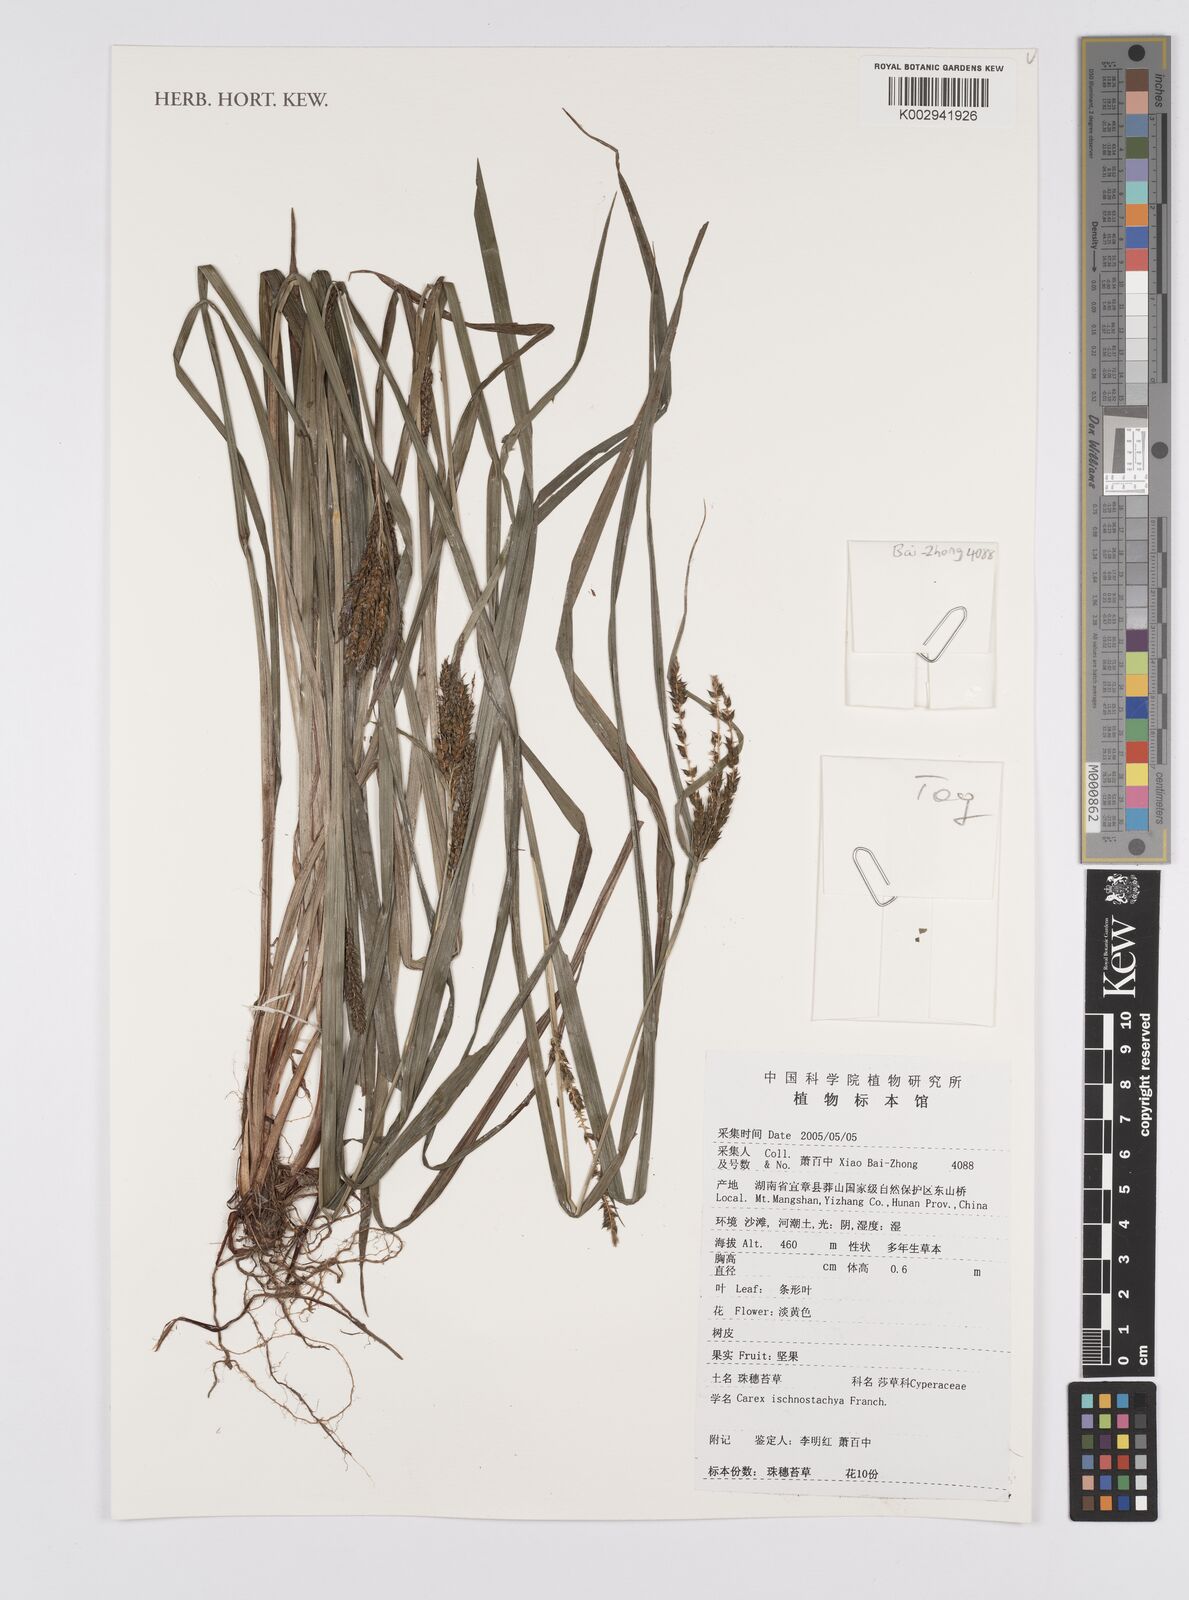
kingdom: Plantae
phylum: Tracheophyta
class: Liliopsida
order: Poales
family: Cyperaceae
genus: Carex
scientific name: Carex ischnostachya
